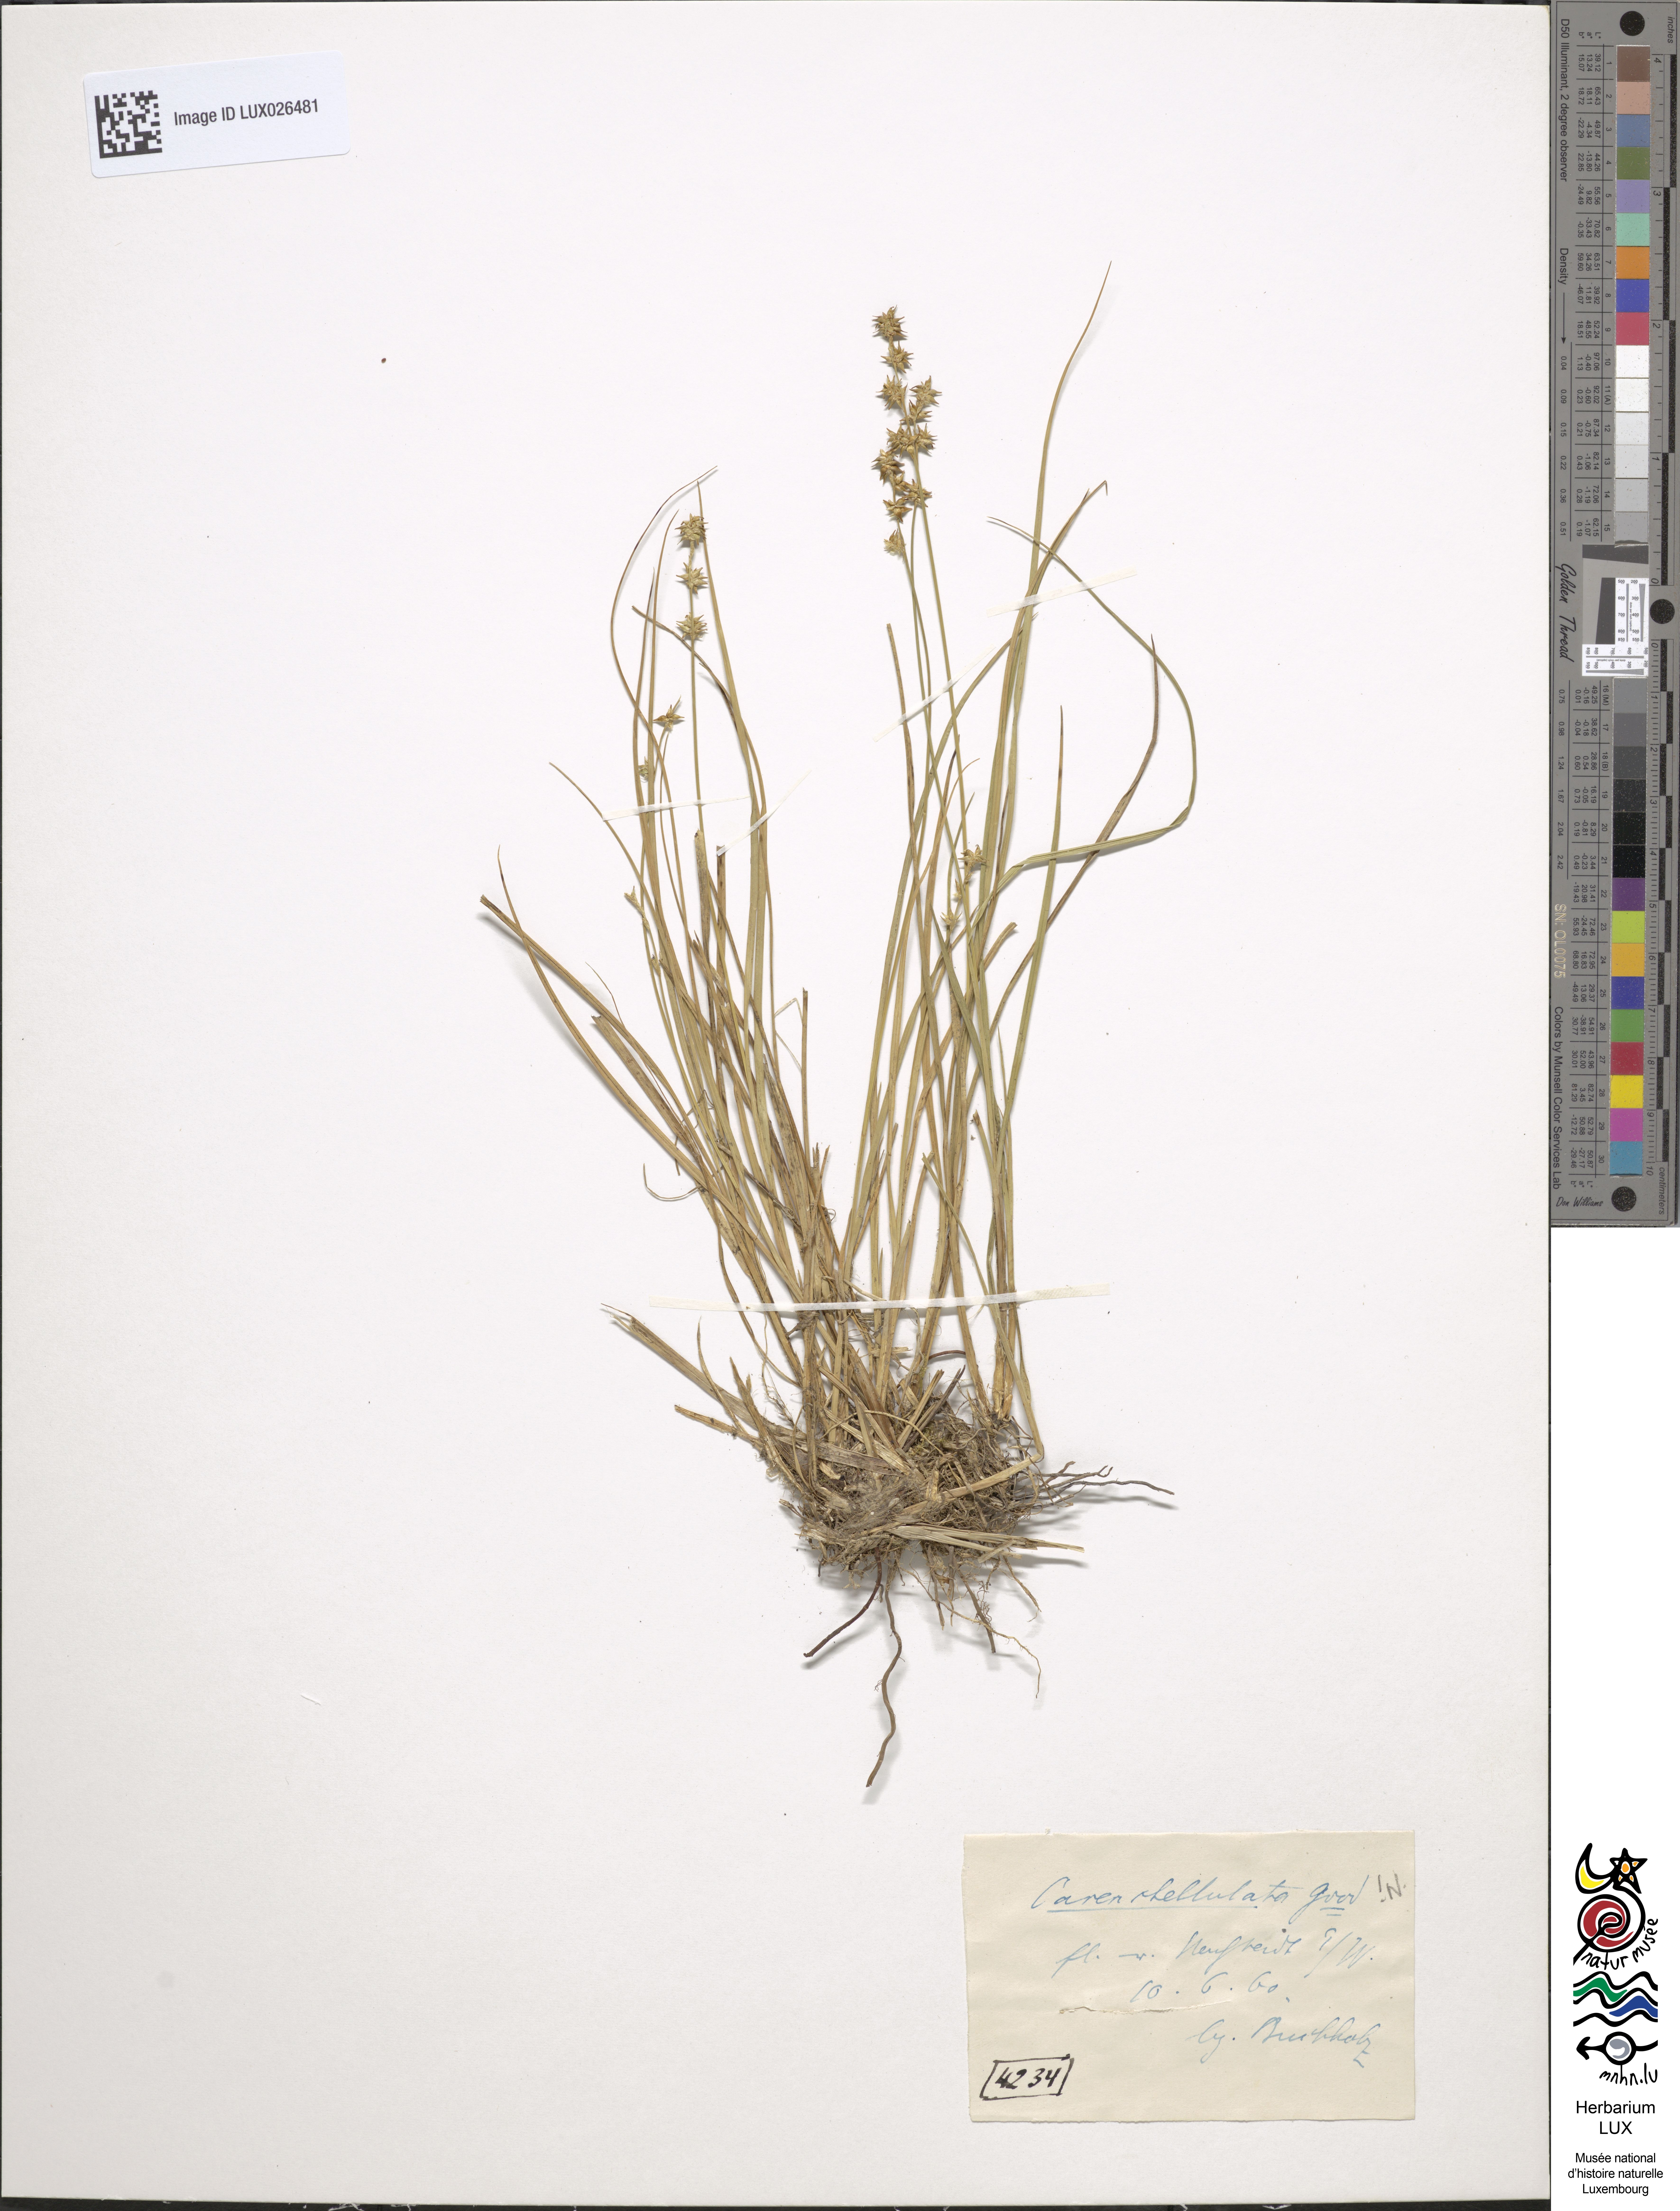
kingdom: Plantae
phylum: Tracheophyta
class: Liliopsida
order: Poales
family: Cyperaceae
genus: Carex
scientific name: Carex echinata
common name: Star sedge
